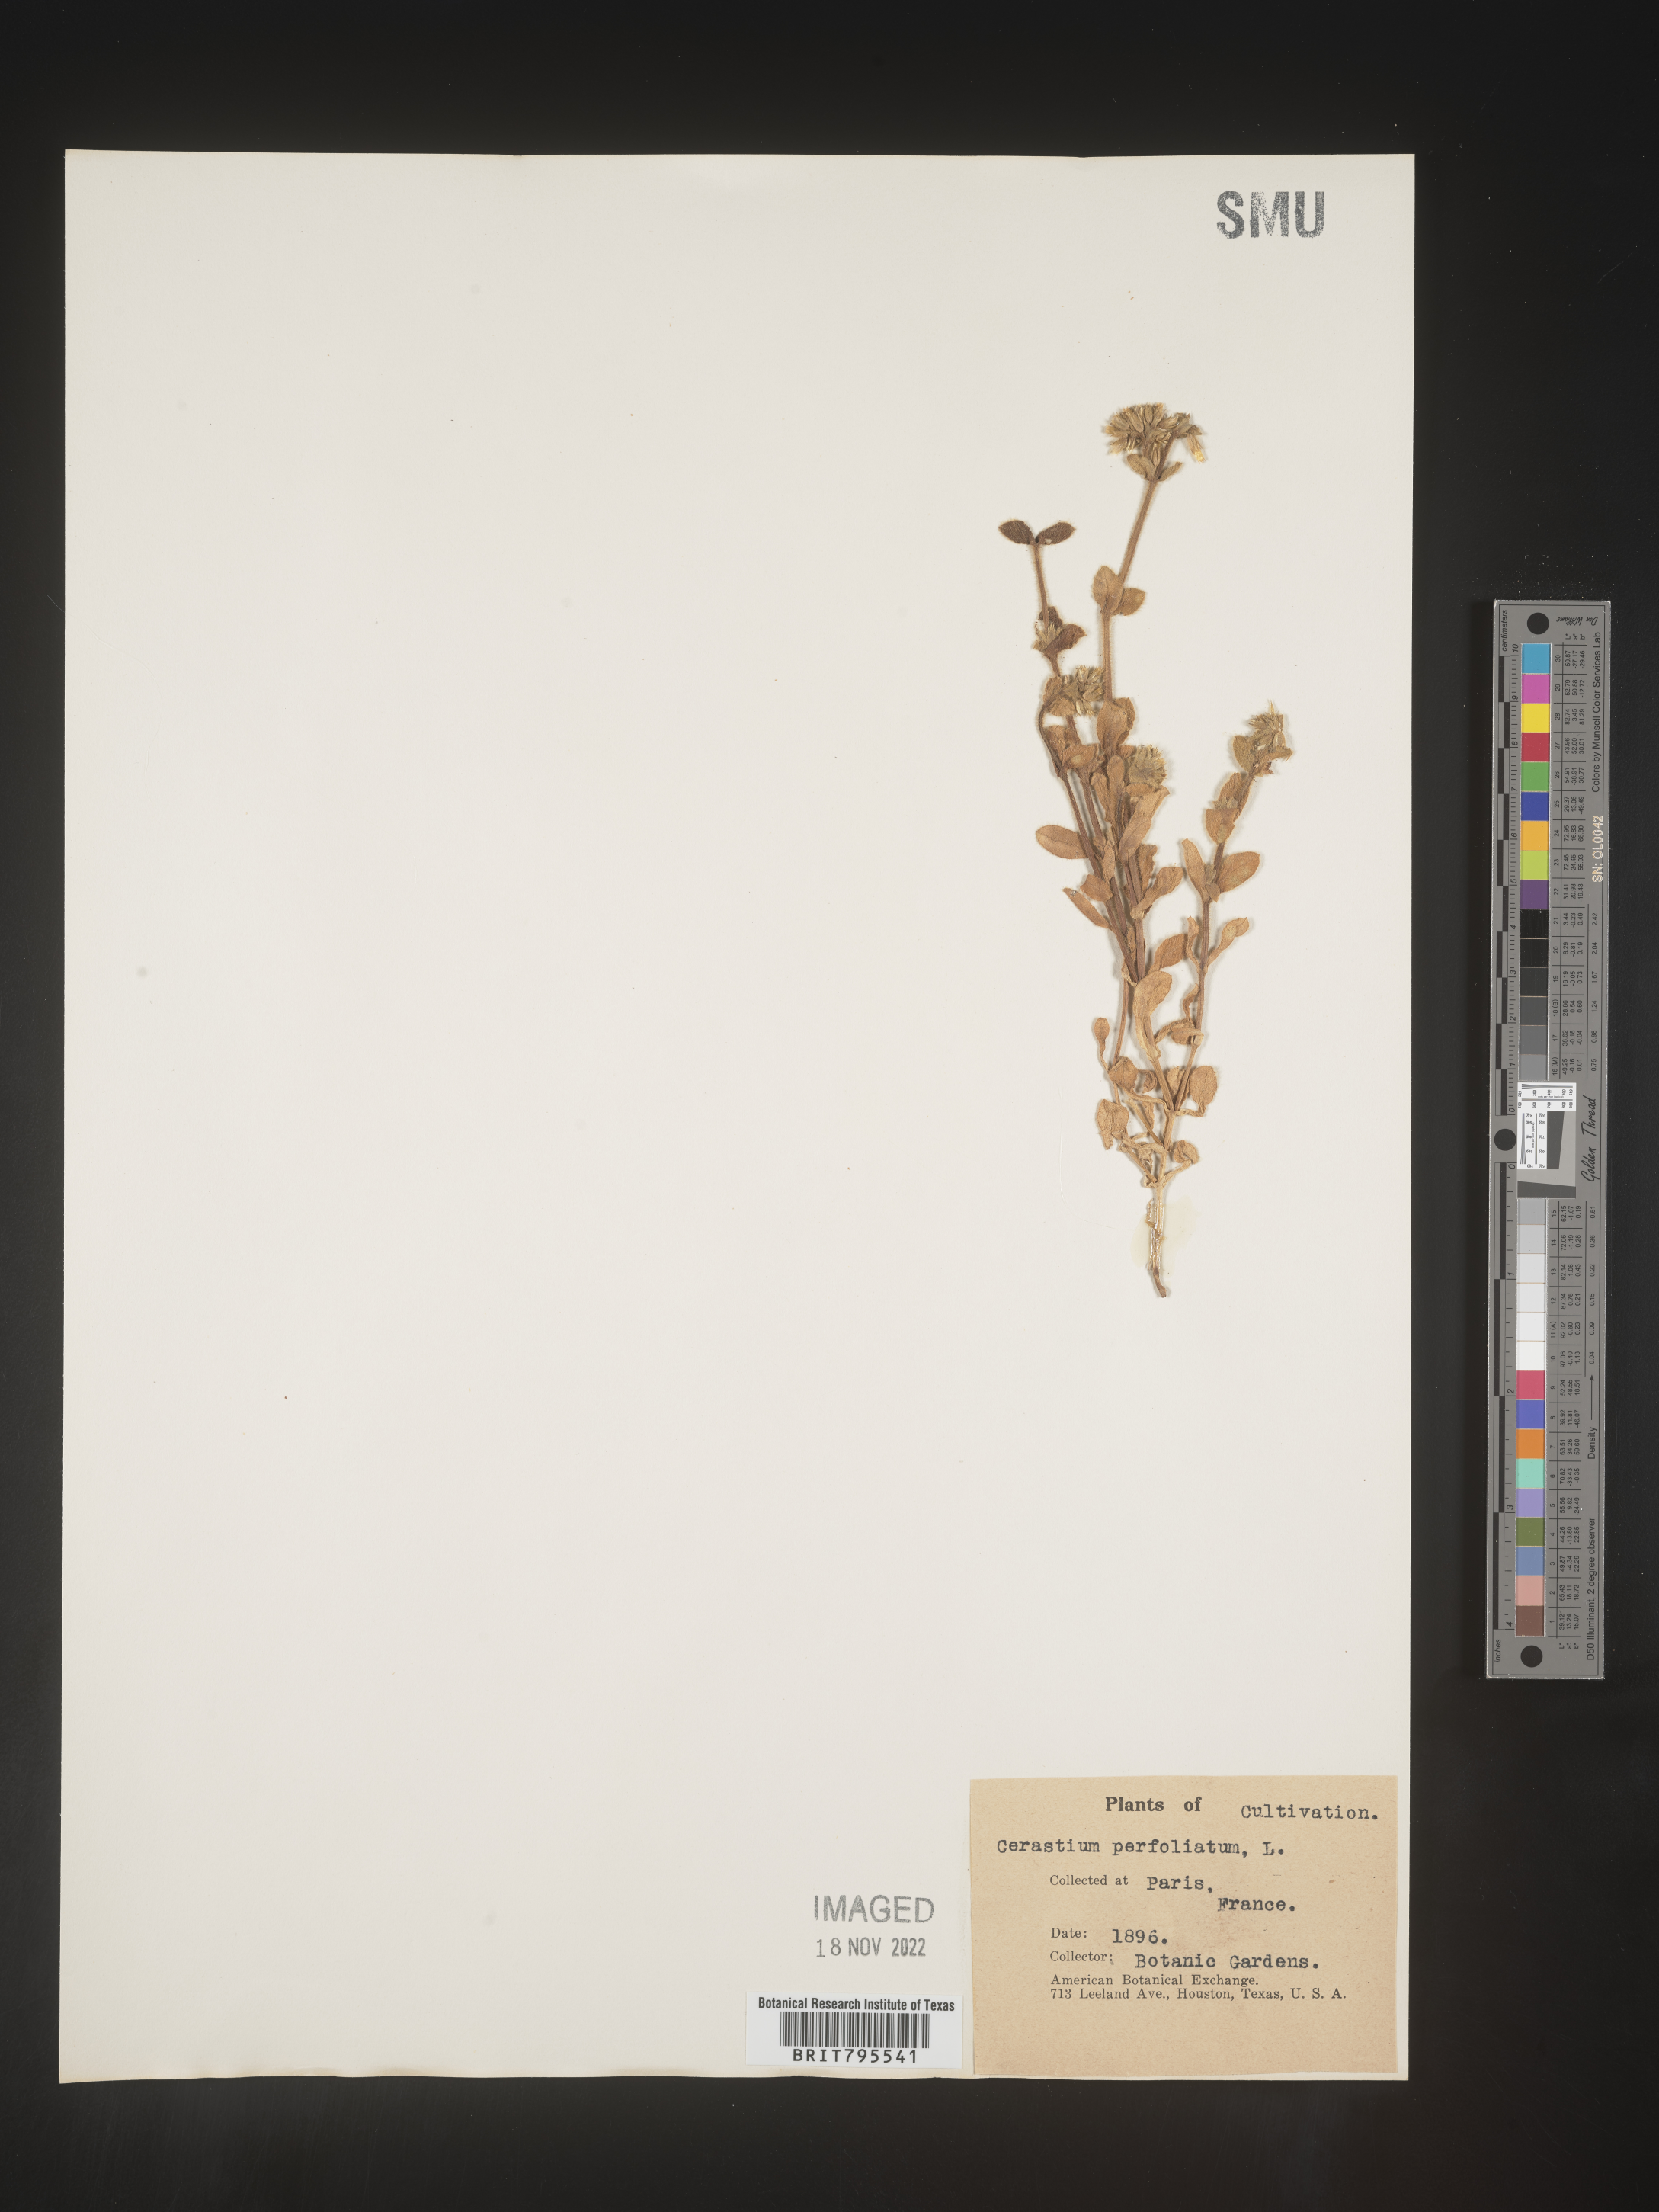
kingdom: Plantae
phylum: Tracheophyta
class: Magnoliopsida
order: Caryophyllales
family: Caryophyllaceae
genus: Cerastium
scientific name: Cerastium
